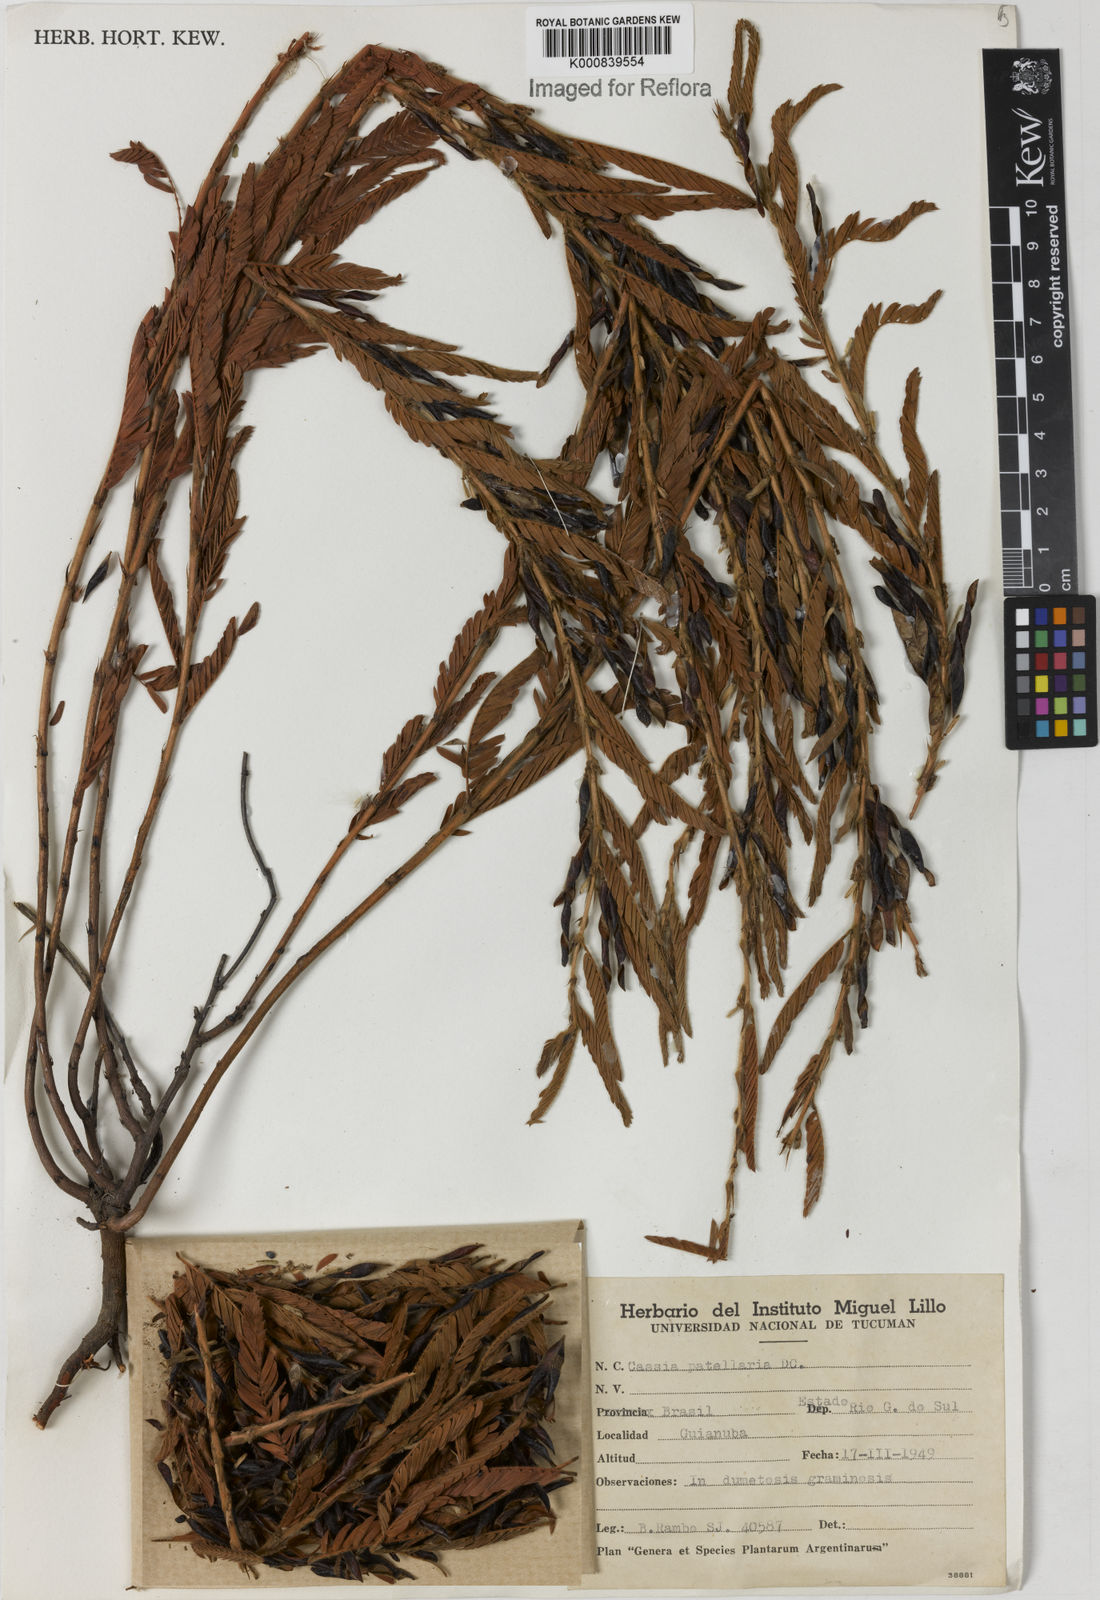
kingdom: Plantae
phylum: Tracheophyta
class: Magnoliopsida
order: Fabales
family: Fabaceae
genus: Chamaecrista
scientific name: Chamaecrista nictitans
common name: Sensitive cassia
